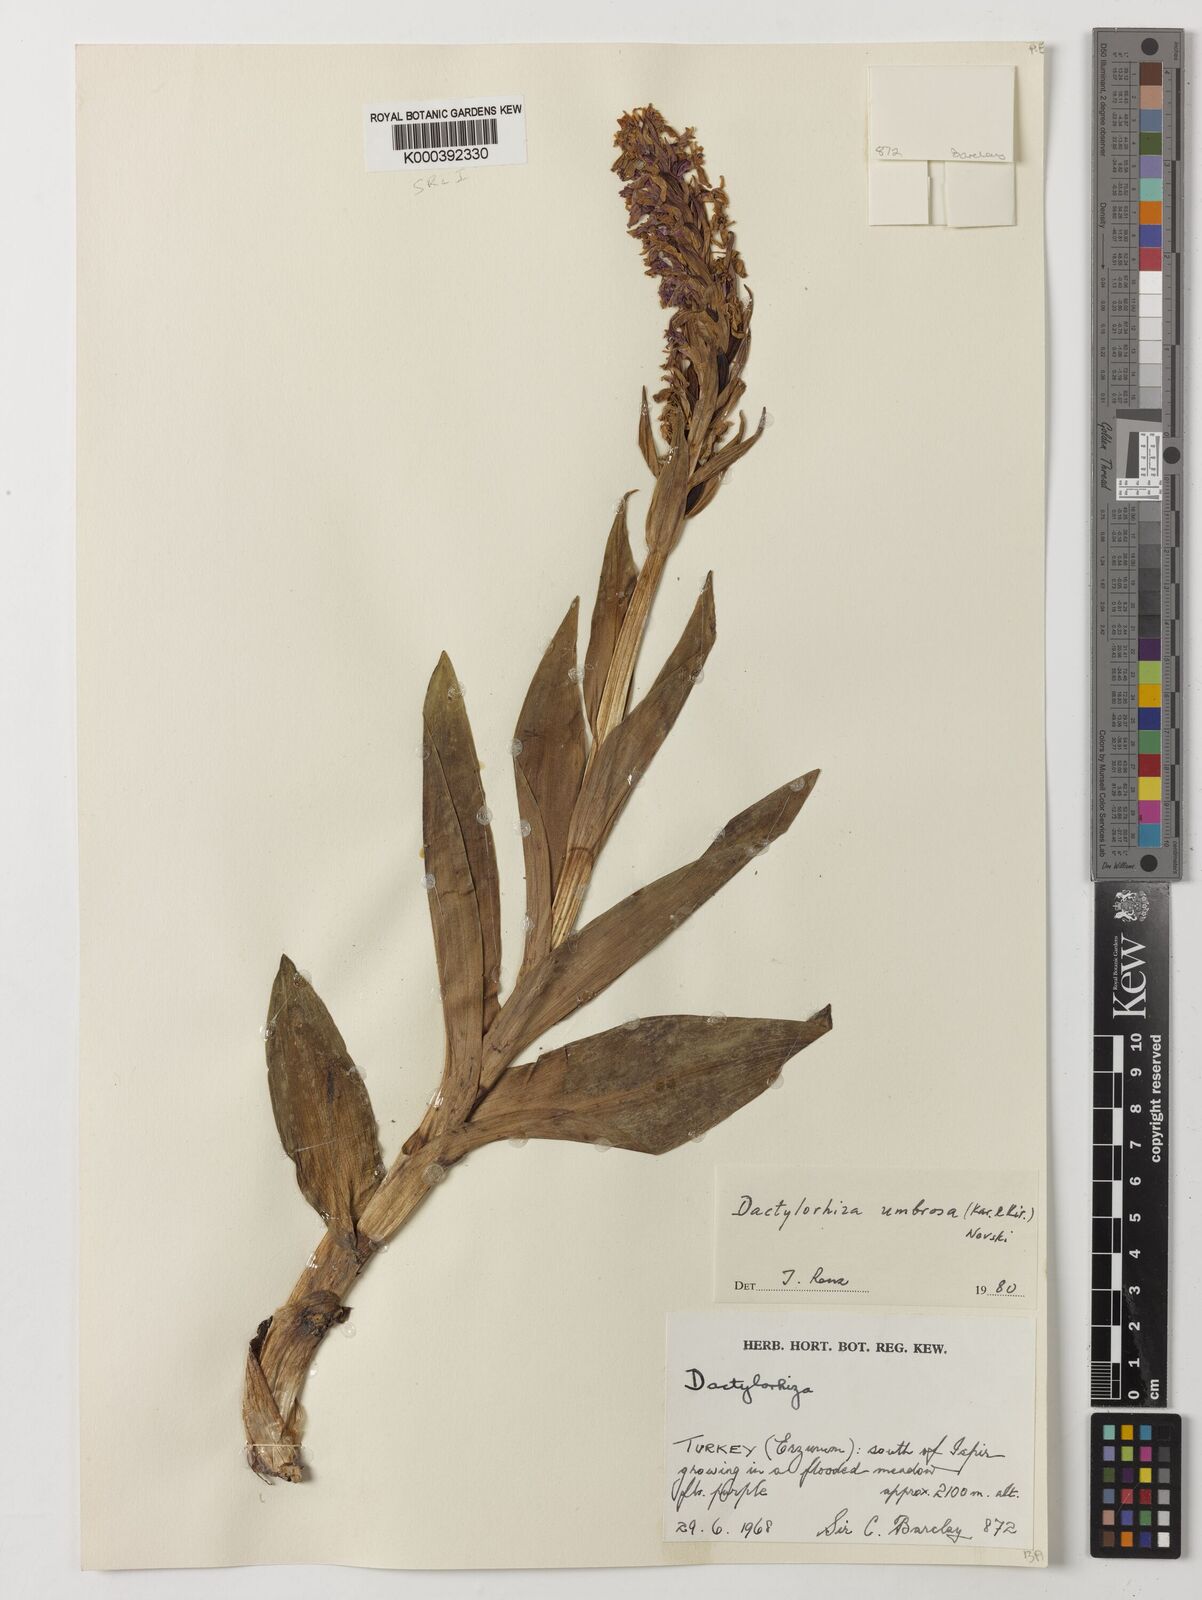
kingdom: Plantae
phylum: Tracheophyta
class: Liliopsida
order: Asparagales
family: Orchidaceae
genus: Dactylorhiza
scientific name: Dactylorhiza
